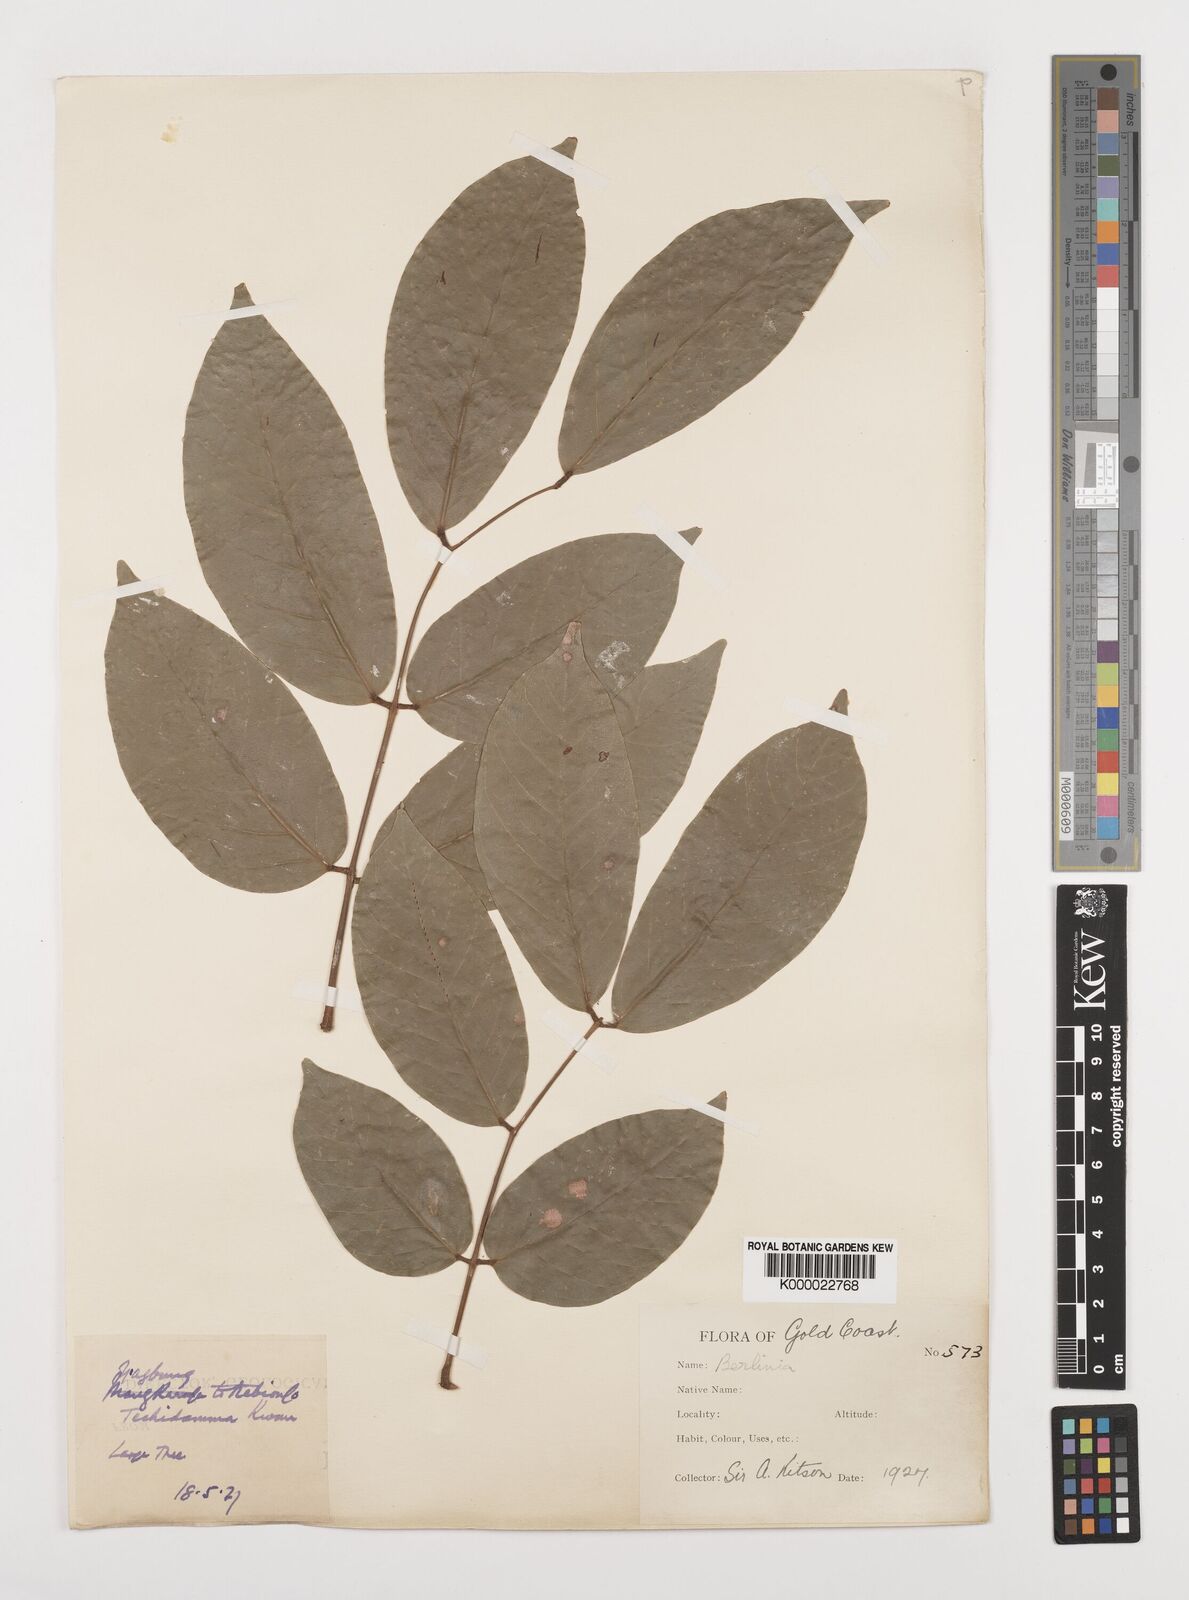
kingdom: Plantae
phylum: Tracheophyta
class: Magnoliopsida
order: Fabales
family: Fabaceae
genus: Berlinia
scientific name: Berlinia
